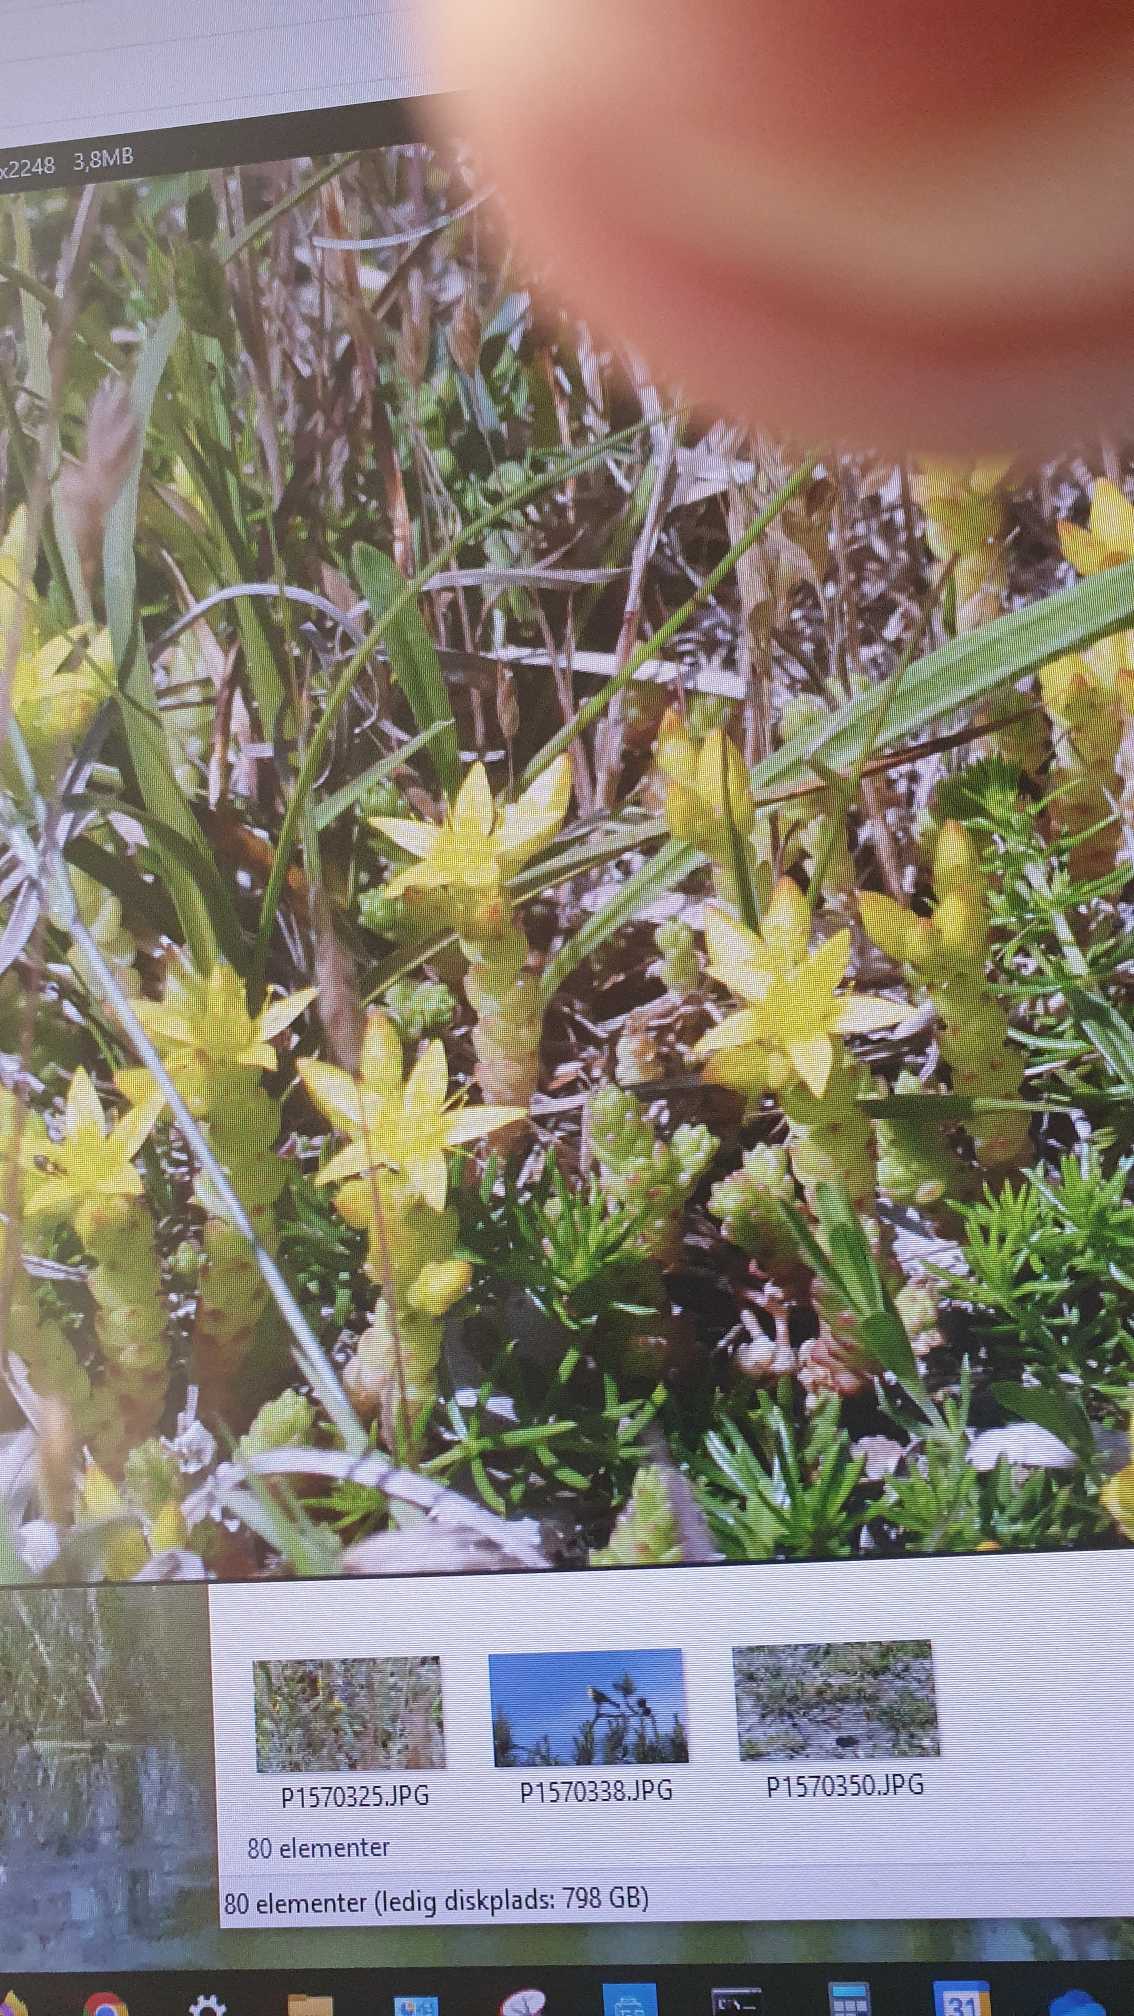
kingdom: Plantae
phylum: Tracheophyta
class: Magnoliopsida
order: Saxifragales
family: Crassulaceae
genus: Sedum
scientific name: Sedum acre
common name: Bidende stenurt
